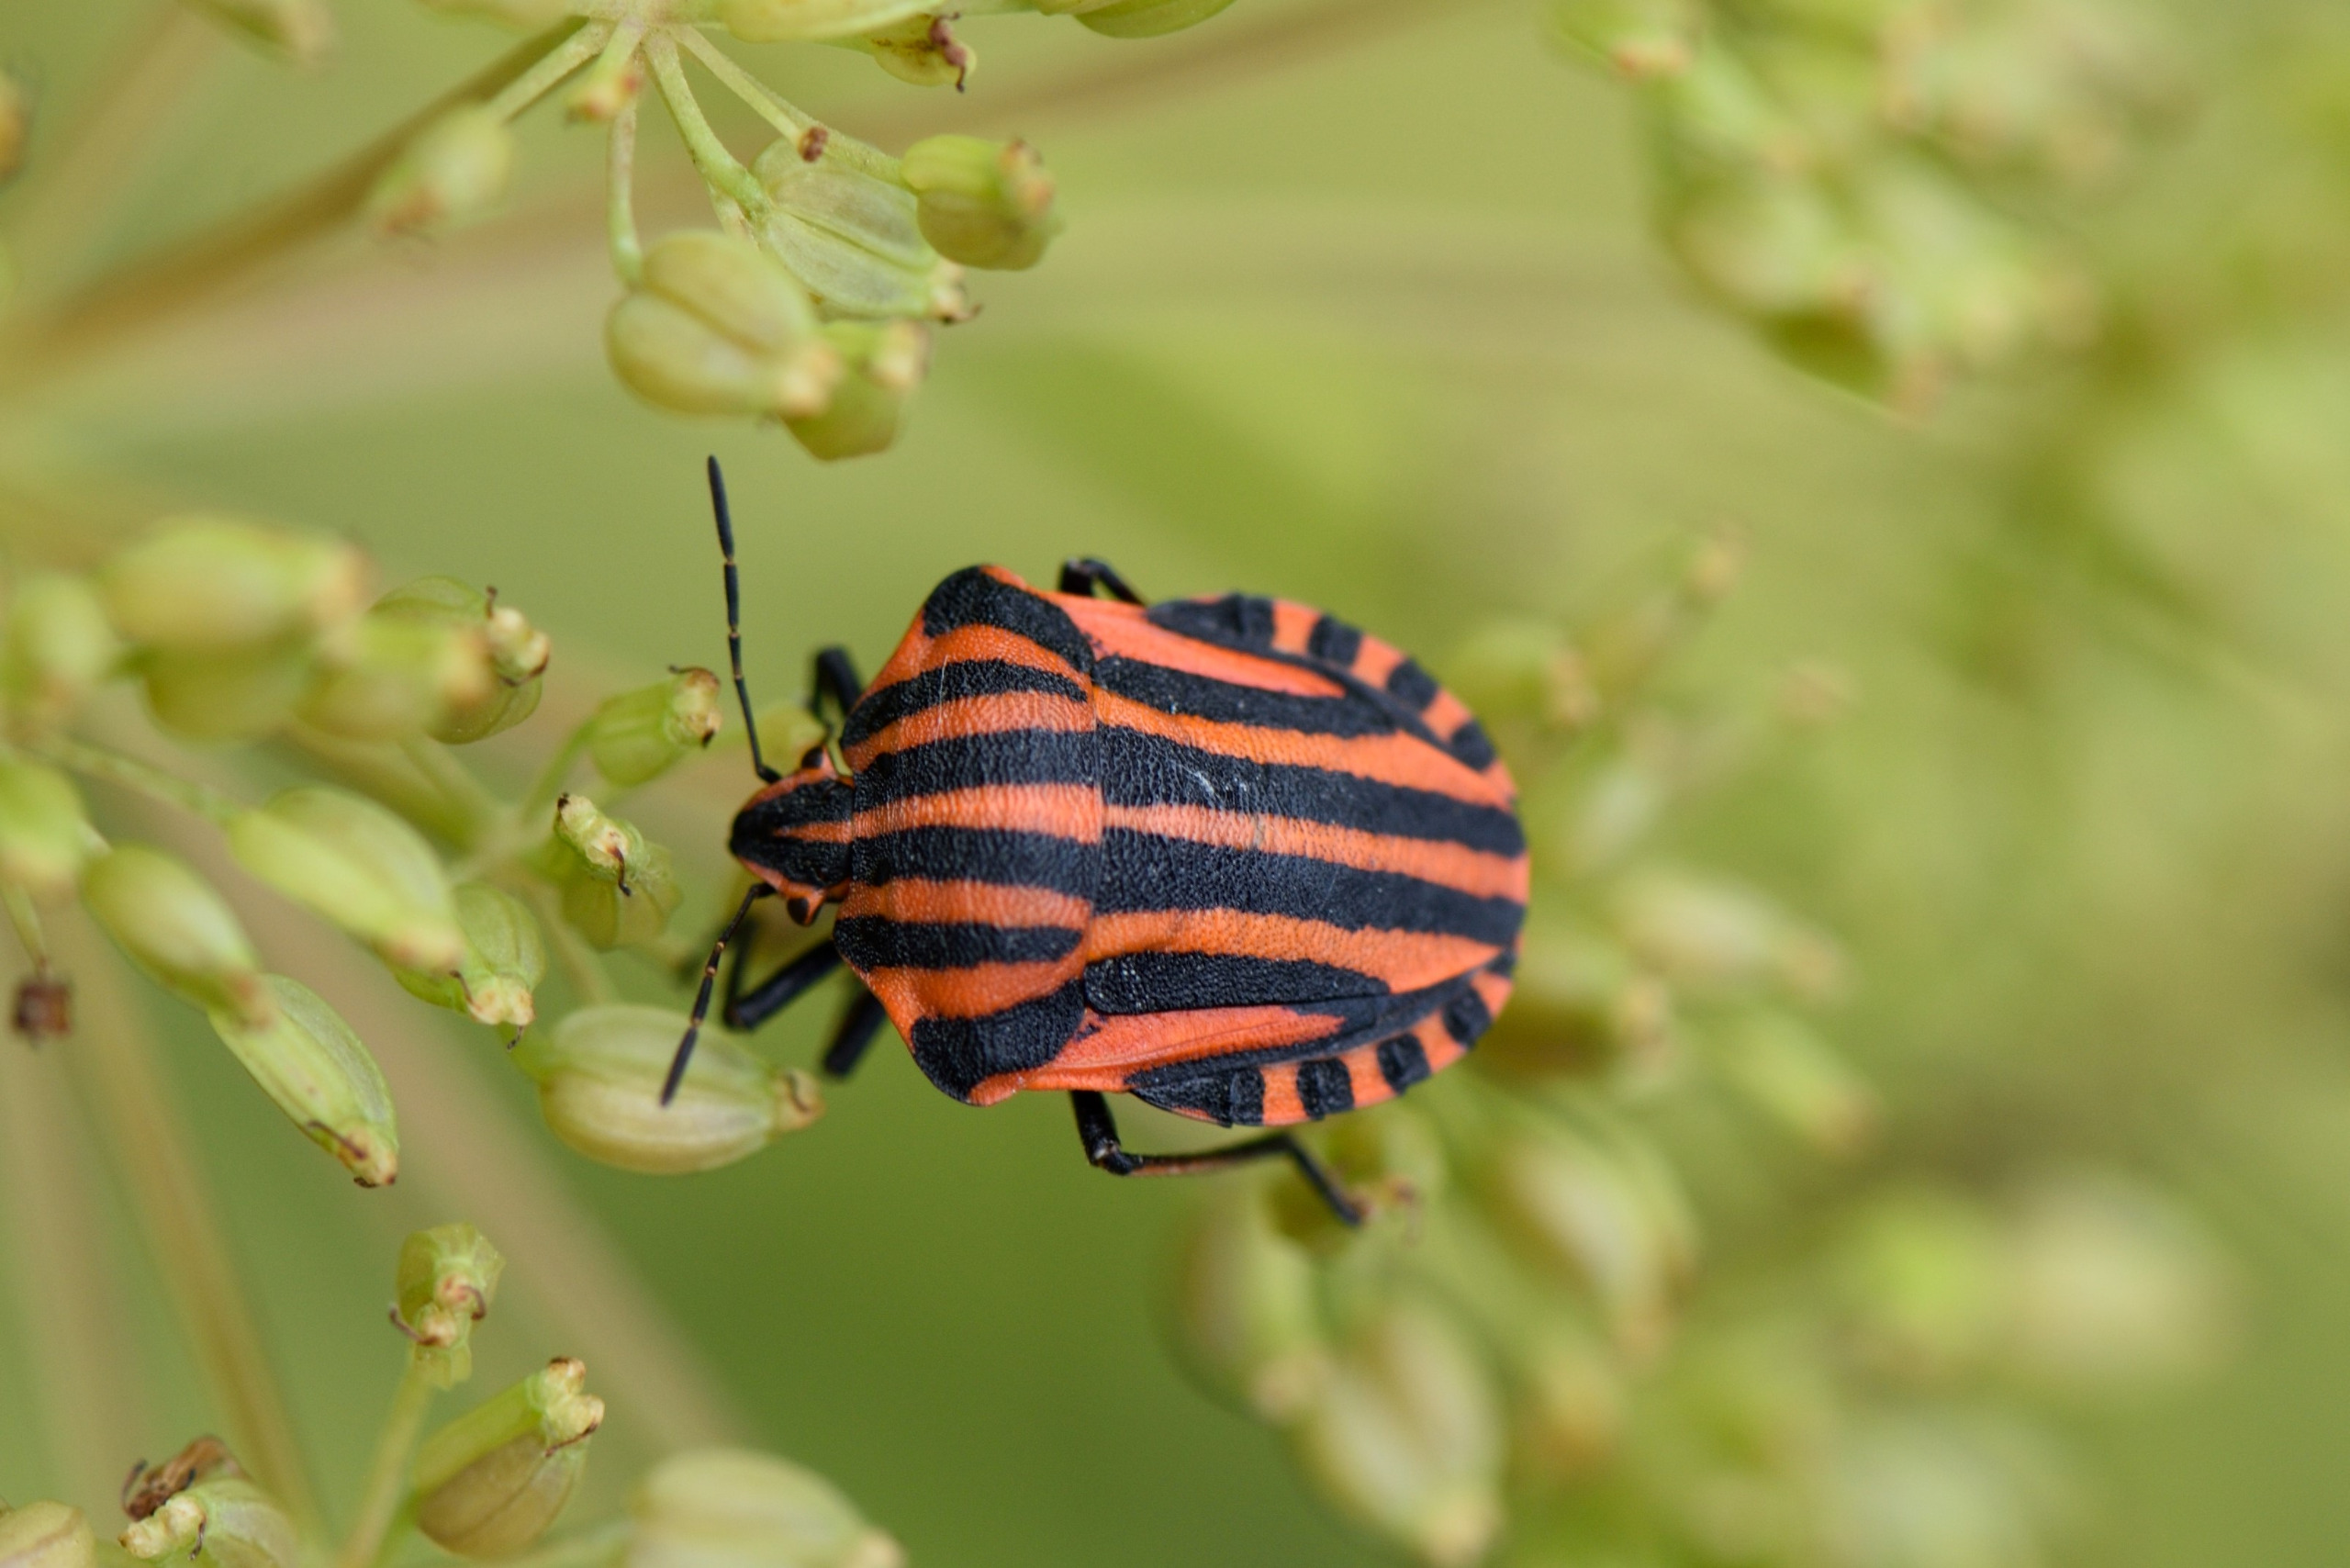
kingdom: Animalia
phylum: Arthropoda
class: Insecta
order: Hemiptera
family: Pentatomidae
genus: Graphosoma
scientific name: Graphosoma italicum
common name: Stribetæge
